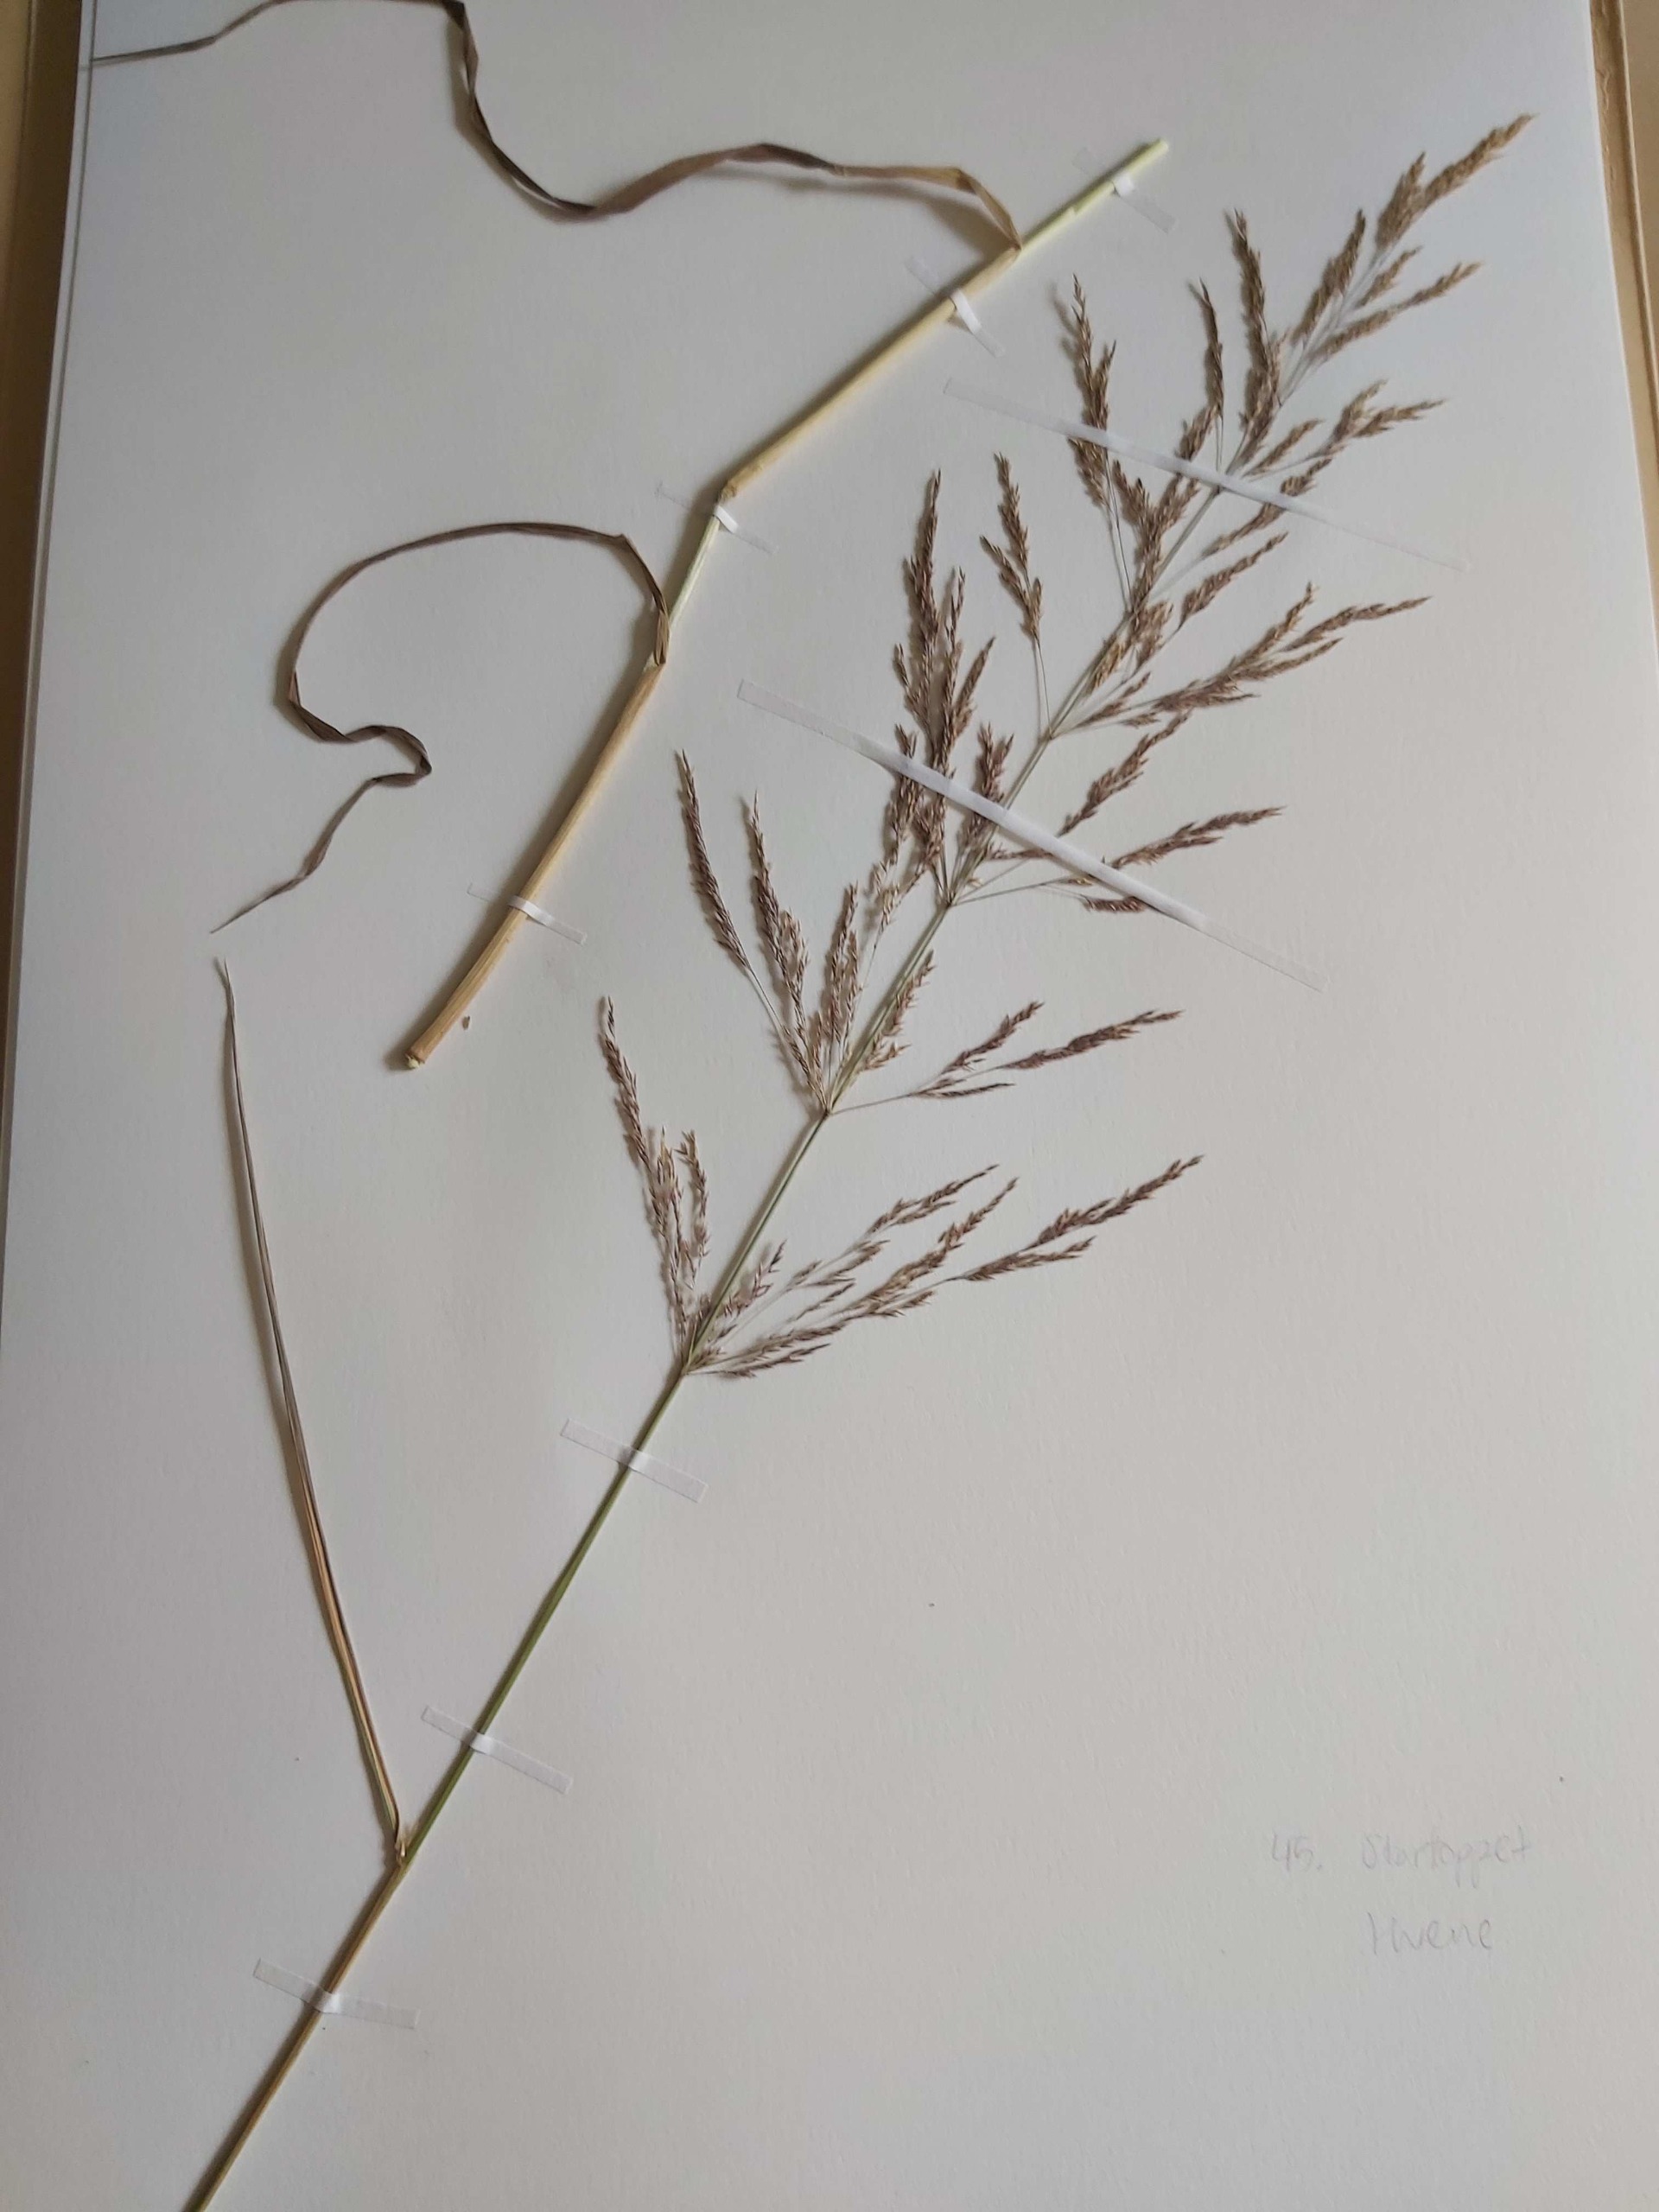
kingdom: Plantae
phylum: Tracheophyta
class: Liliopsida
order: Poales
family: Poaceae
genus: Agrostis
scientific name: Agrostis gigantea
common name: Stortoppet hvene
